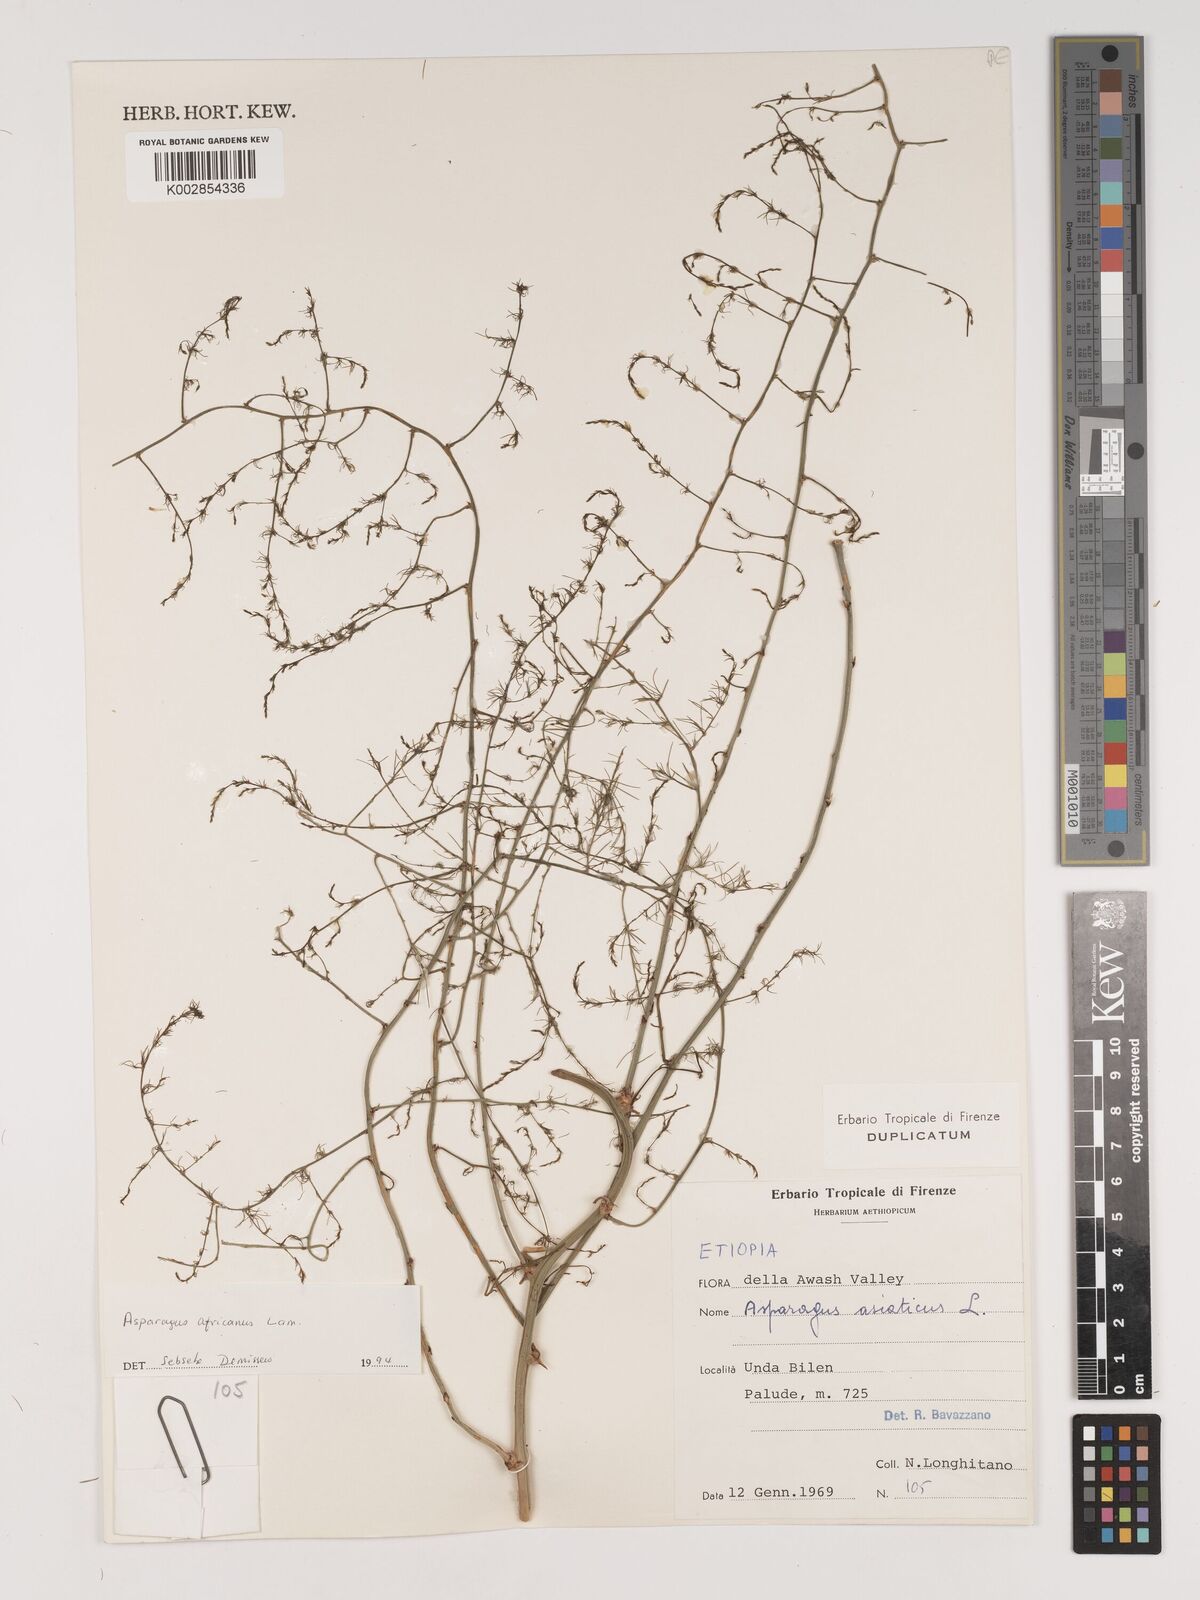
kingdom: Plantae
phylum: Tracheophyta
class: Liliopsida
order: Asparagales
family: Asparagaceae
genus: Asparagus
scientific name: Asparagus africanus
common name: Asparagus-fern
